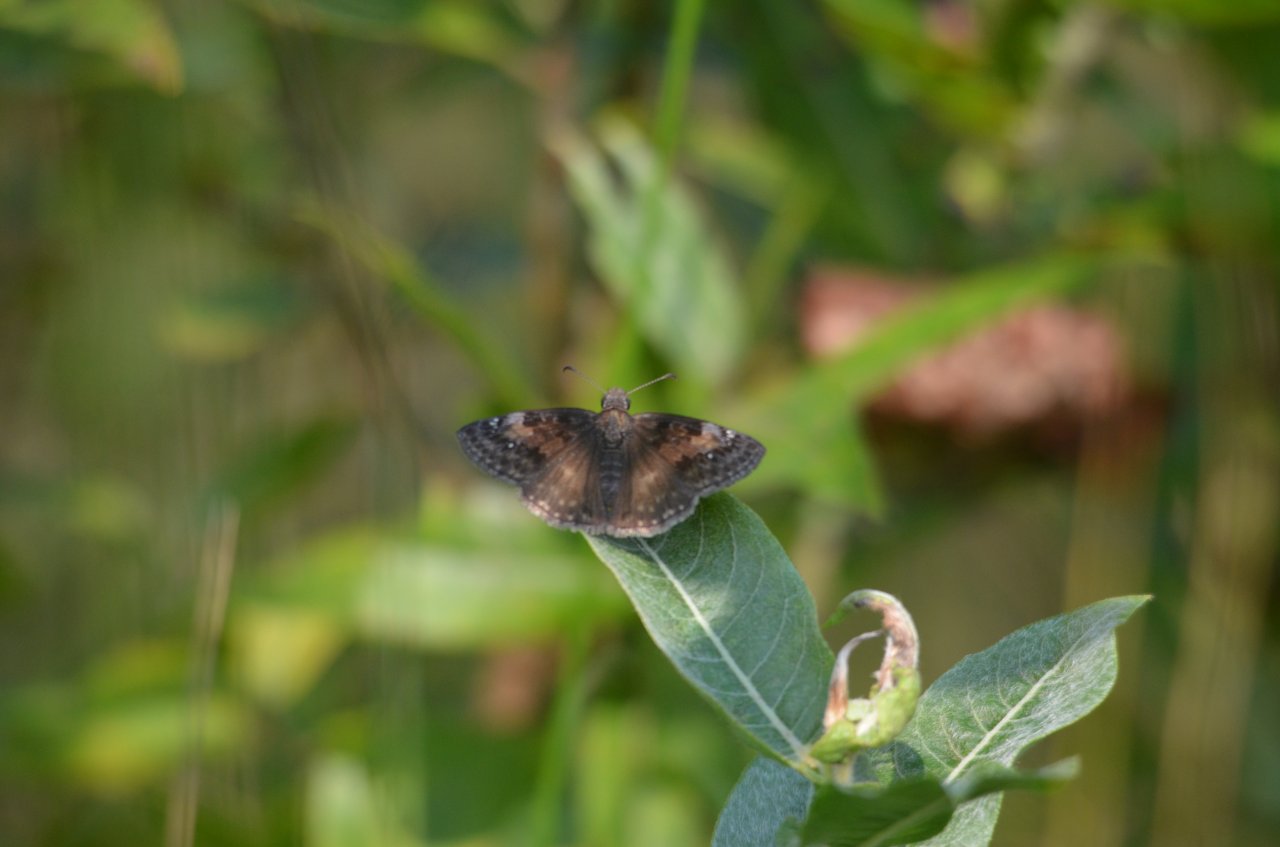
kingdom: Animalia
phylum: Arthropoda
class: Insecta
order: Lepidoptera
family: Hesperiidae
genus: Gesta
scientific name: Gesta
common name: Wild Indigo Duskywing
